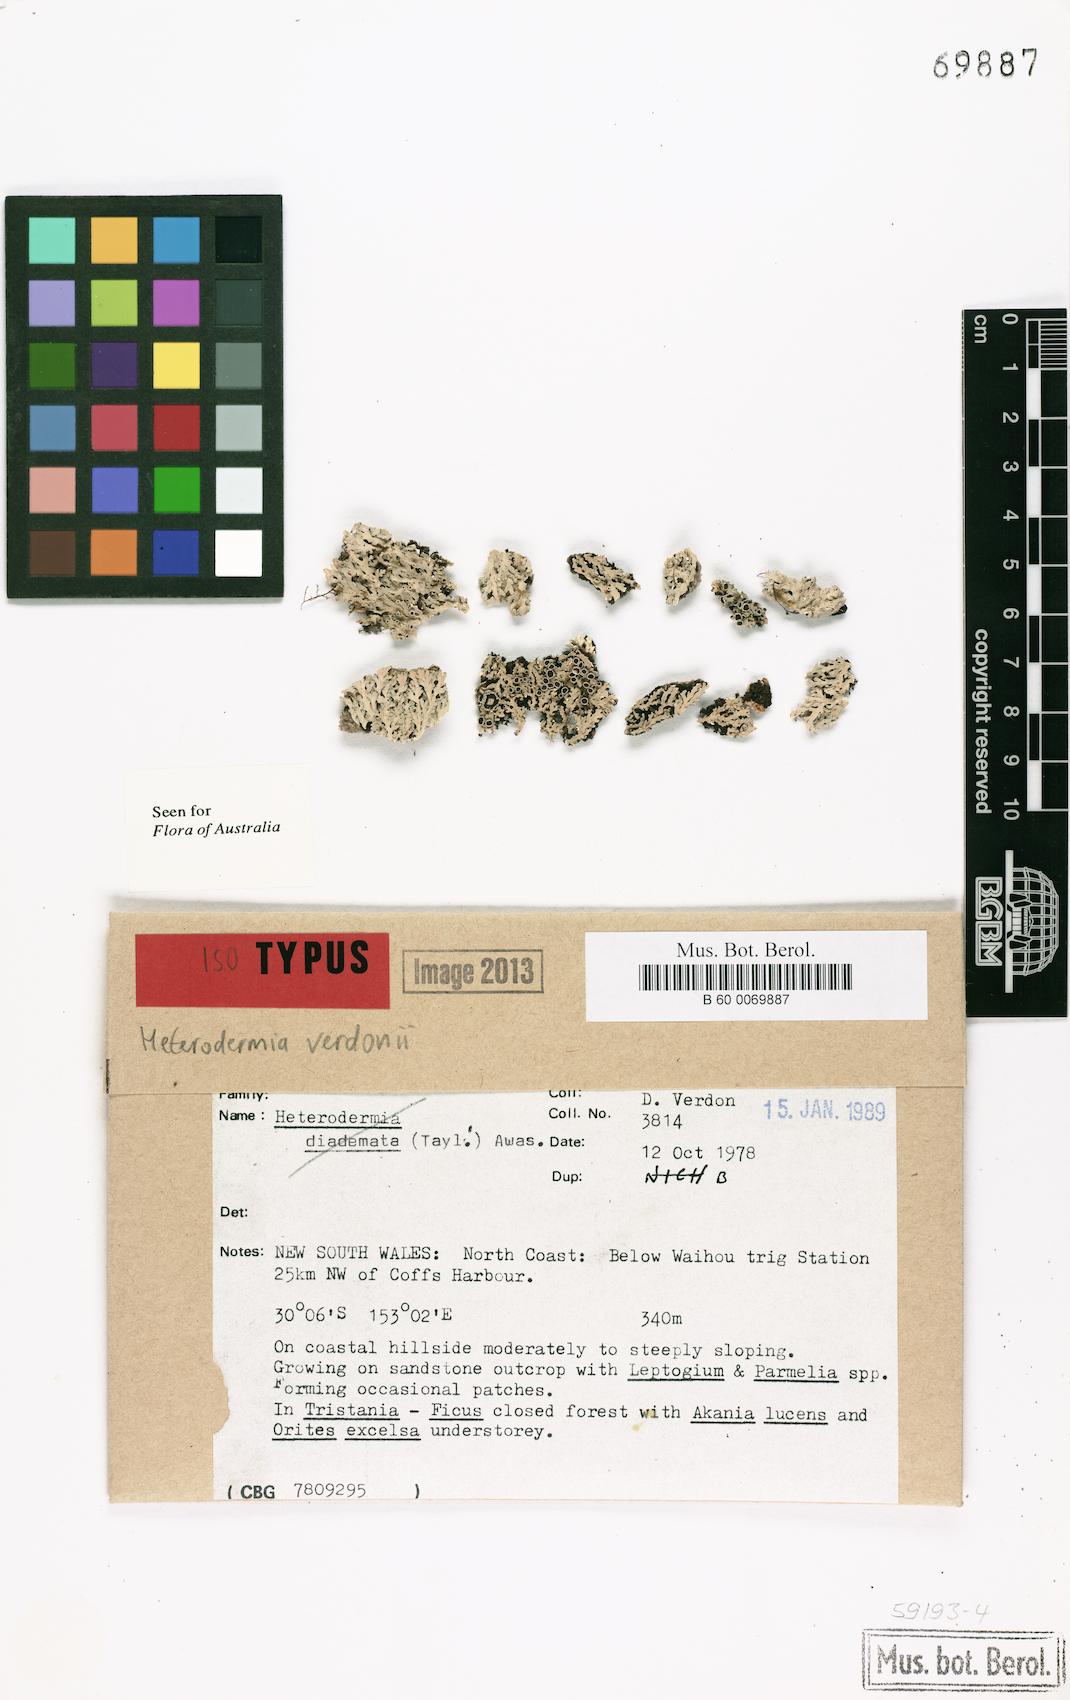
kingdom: Fungi
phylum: Ascomycota
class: Lecanoromycetes
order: Caliciales
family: Physciaceae
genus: Heterodermia
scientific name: Heterodermia verdonii
